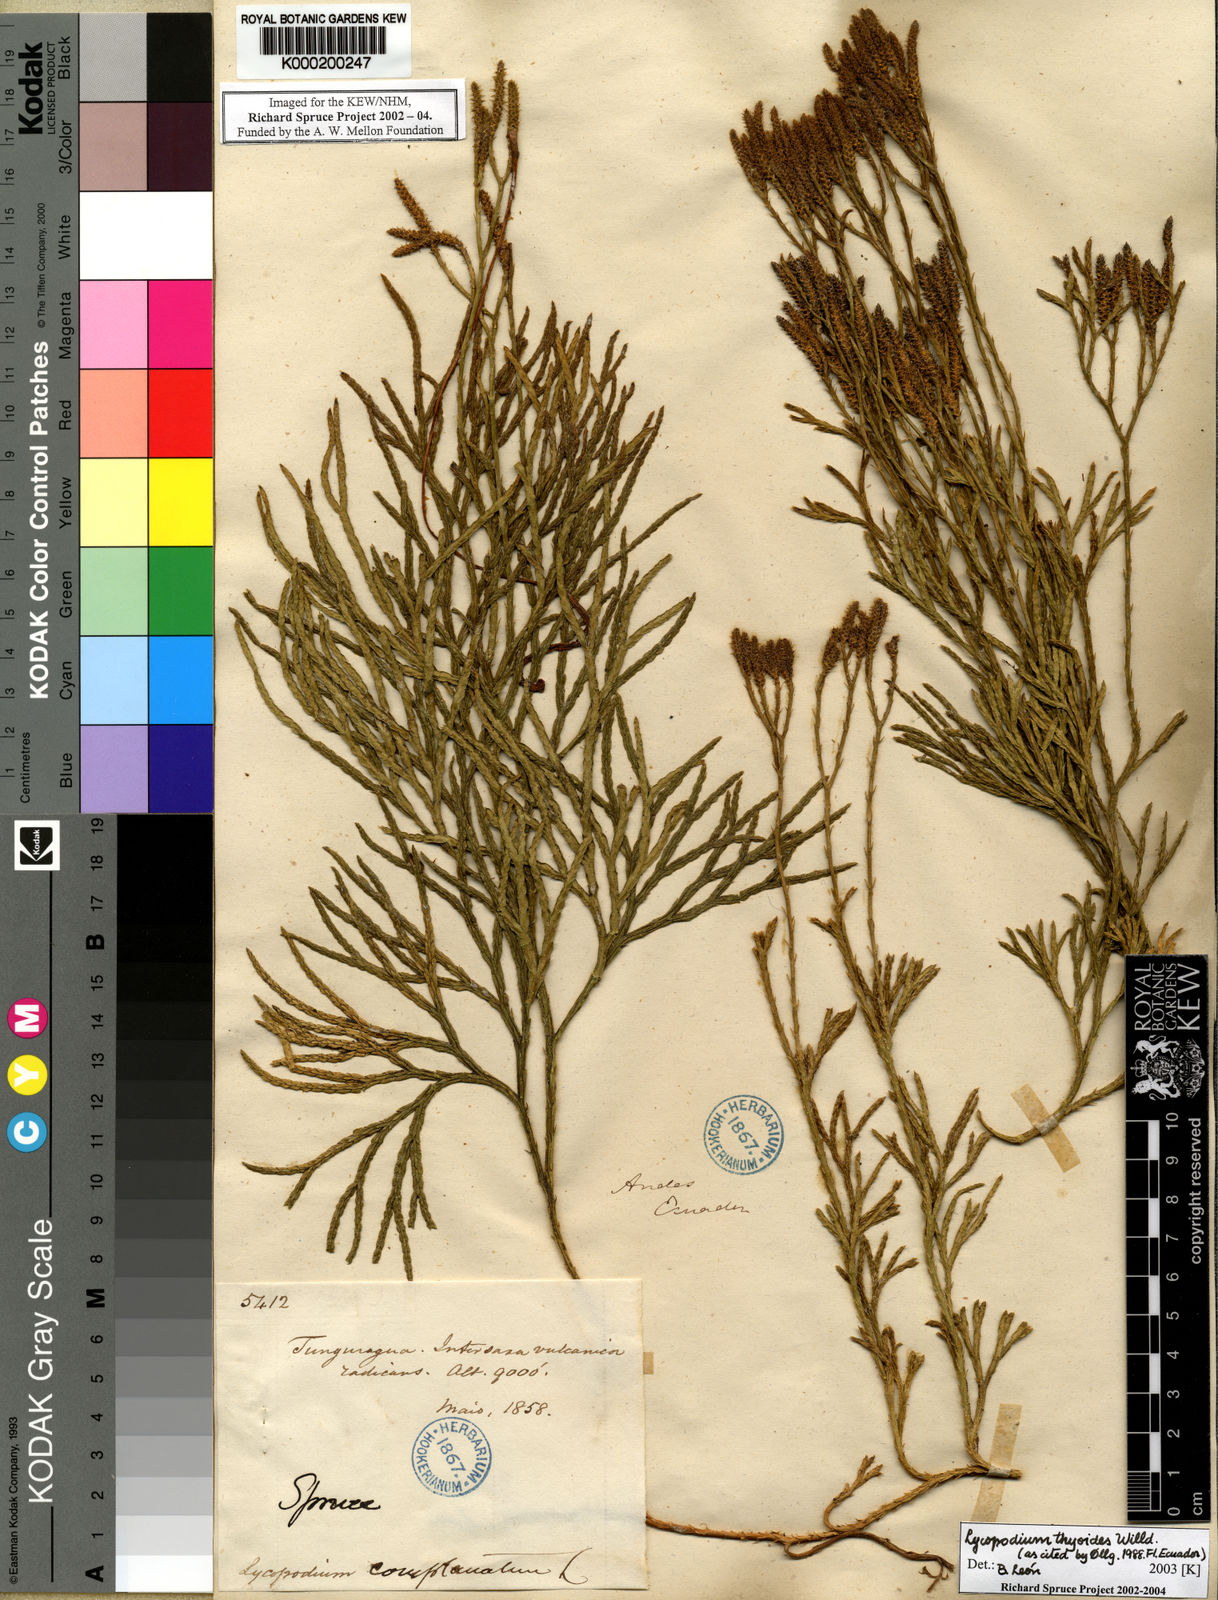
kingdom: Plantae
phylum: Tracheophyta
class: Lycopodiopsida
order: Lycopodiales
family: Lycopodiaceae
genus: Diphasiastrum
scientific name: Diphasiastrum thyoides
